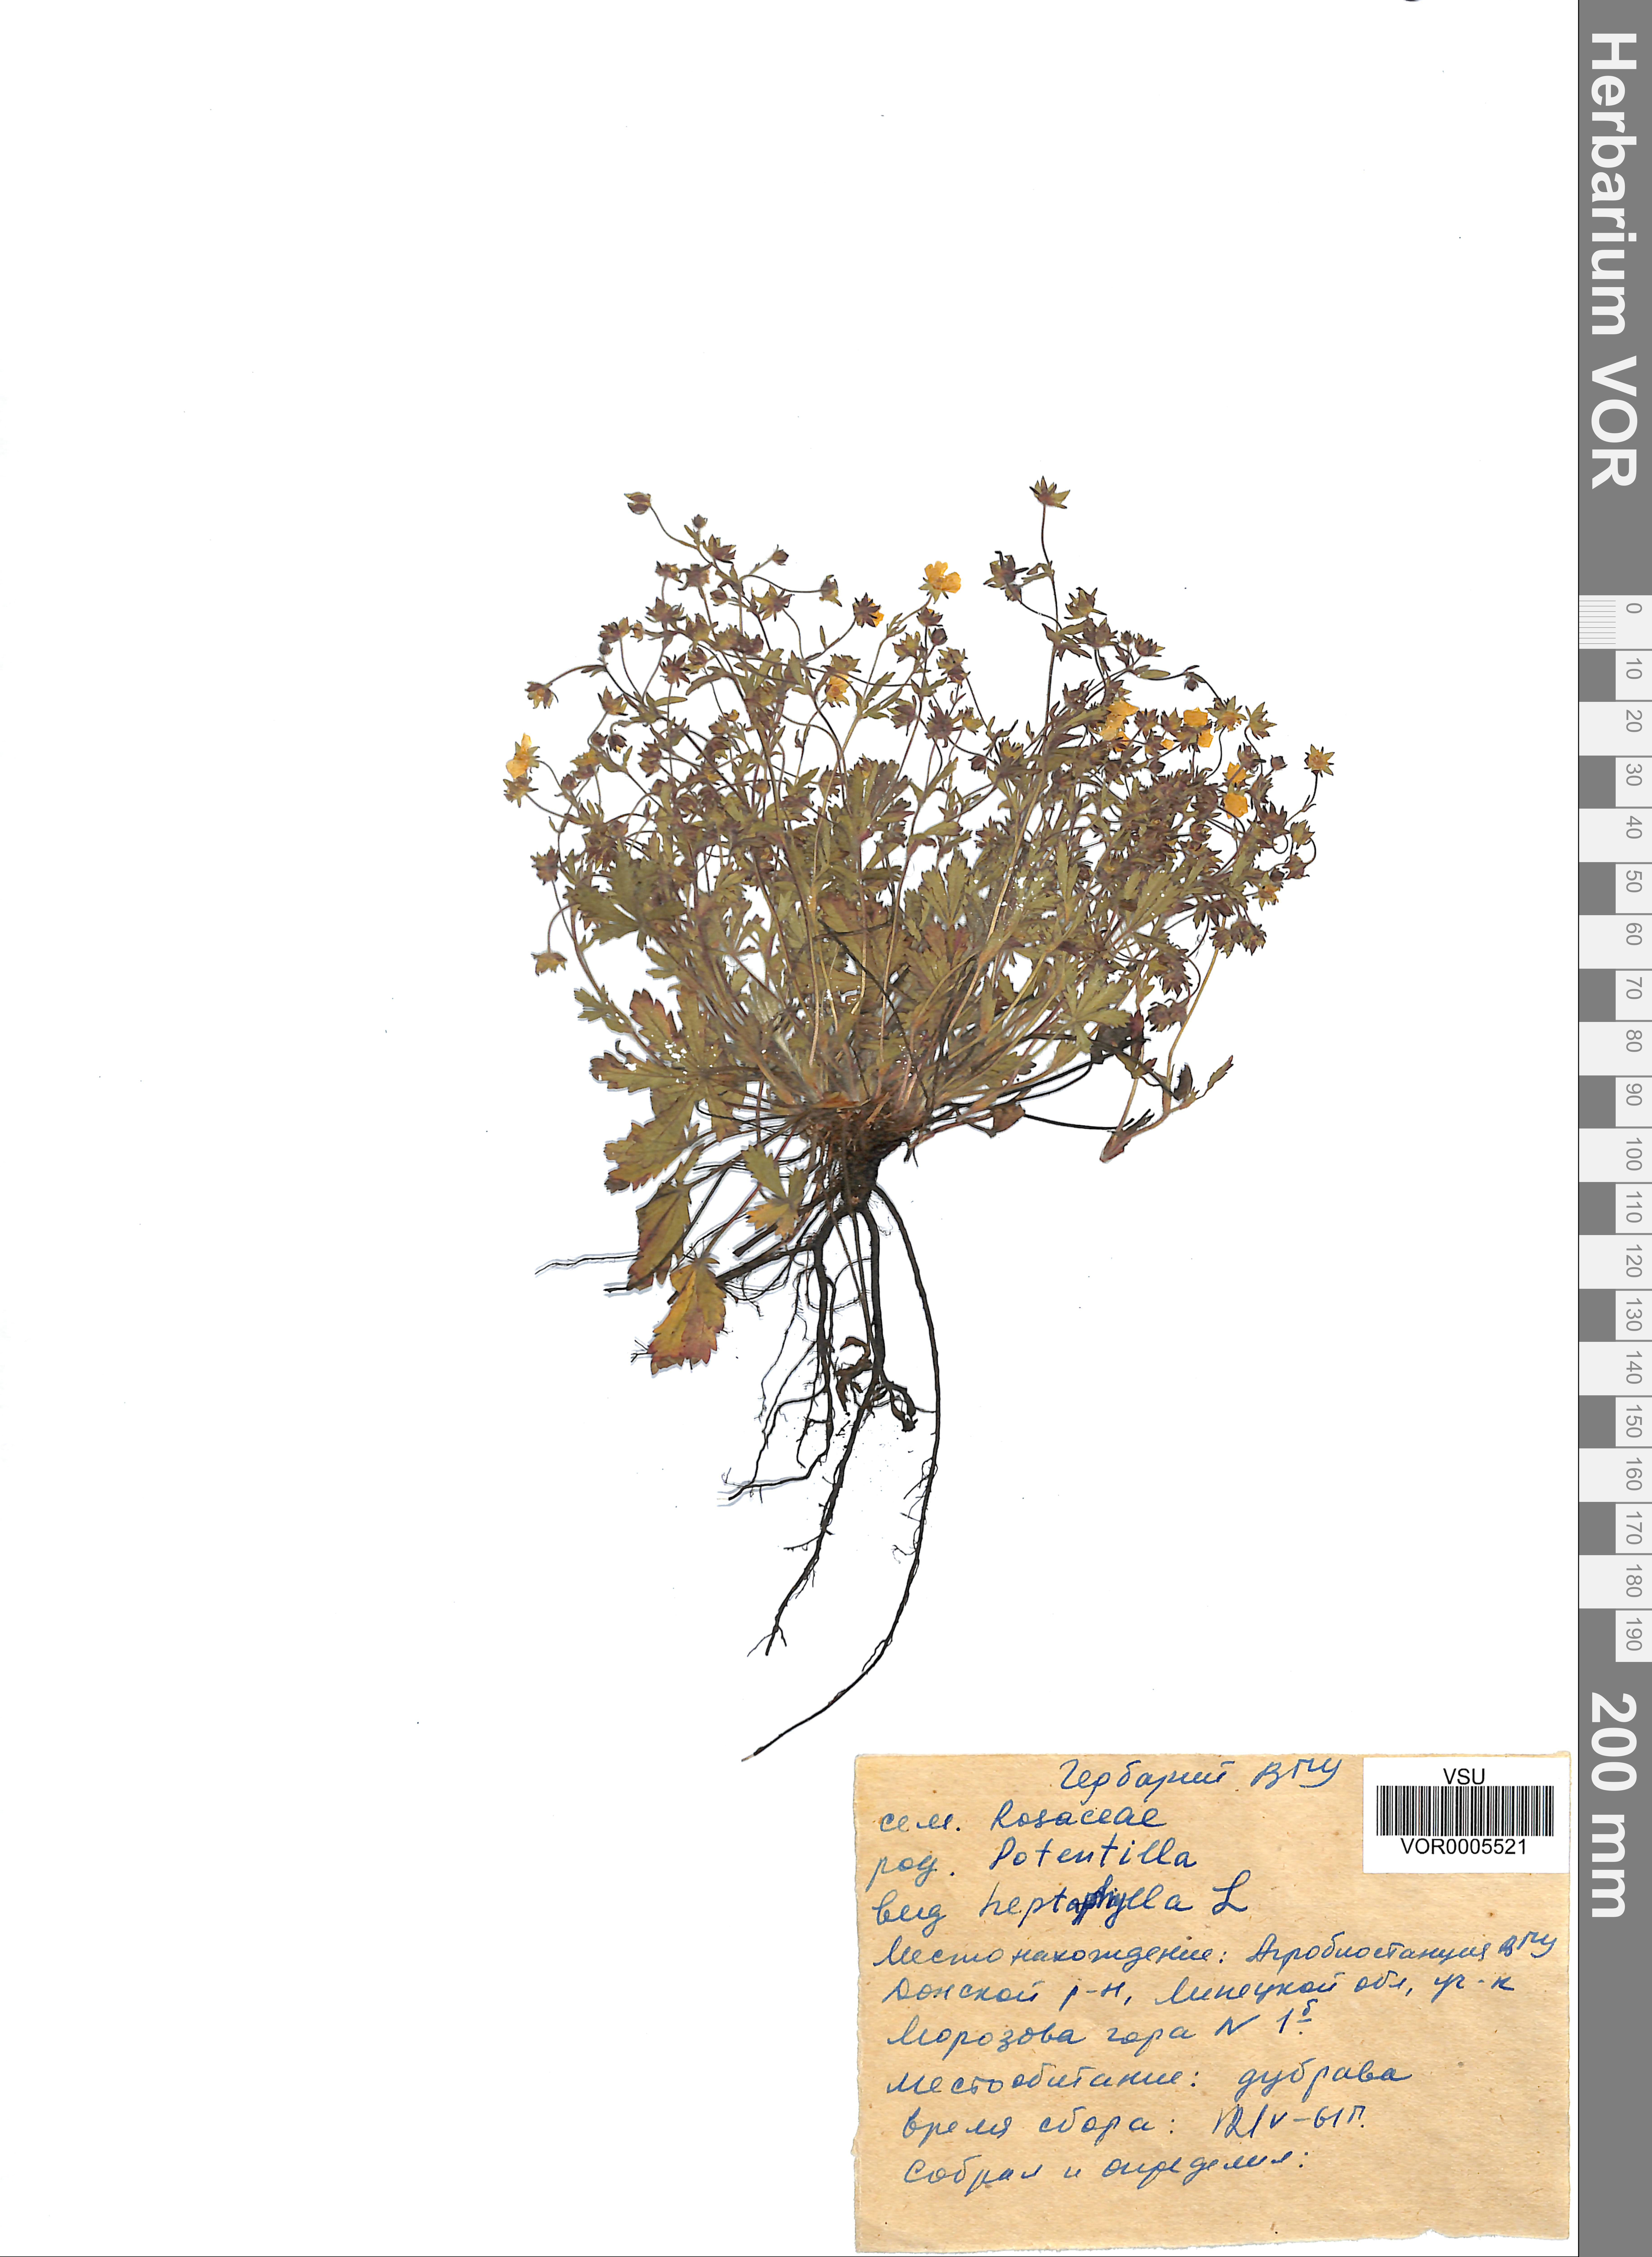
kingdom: Plantae
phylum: Tracheophyta
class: Magnoliopsida
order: Rosales
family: Rosaceae
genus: Potentilla
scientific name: Potentilla heptaphylla
